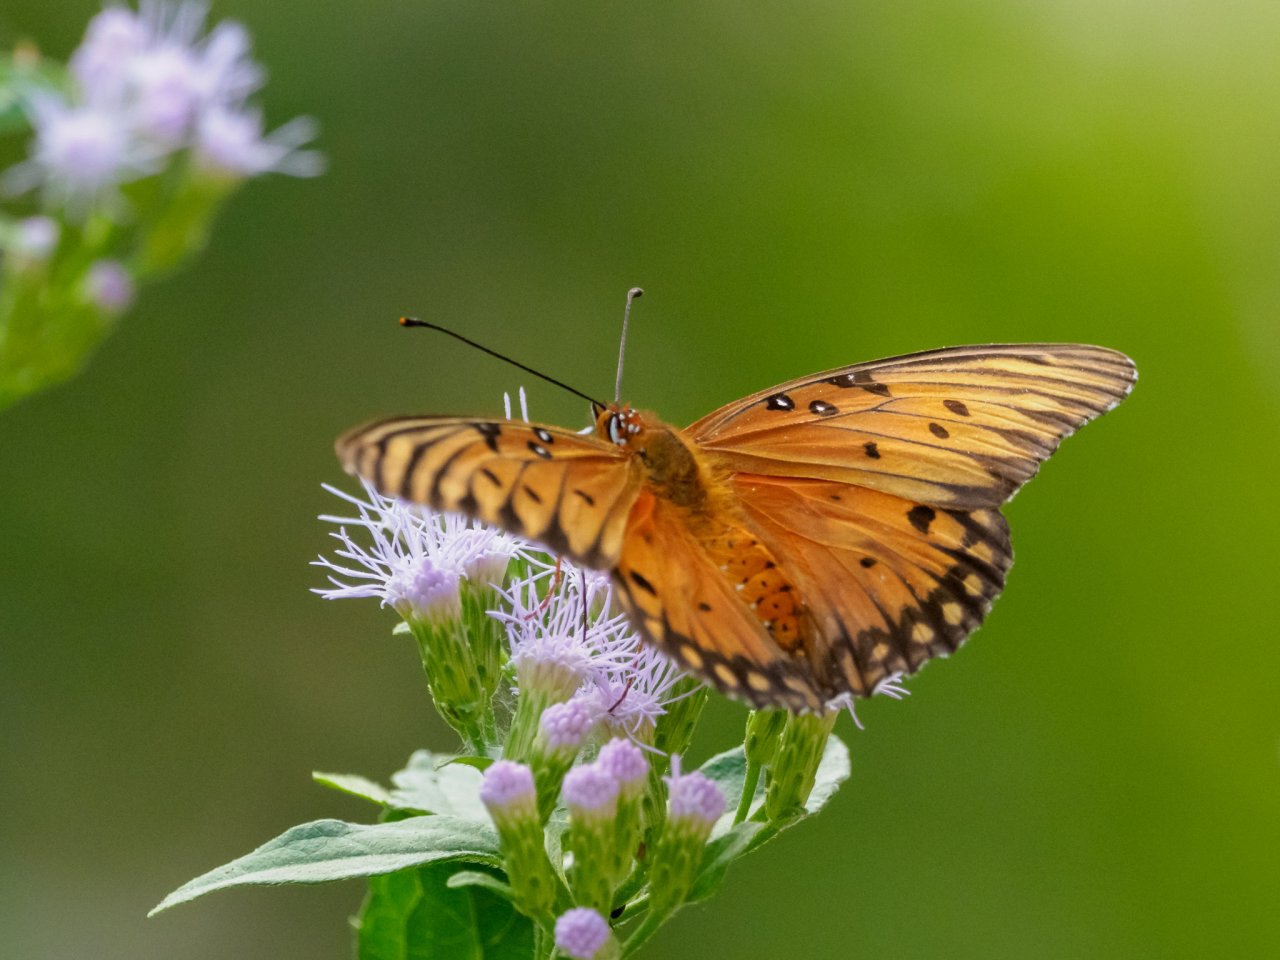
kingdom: Animalia
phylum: Arthropoda
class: Insecta
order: Lepidoptera
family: Nymphalidae
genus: Dione
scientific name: Dione vanillae
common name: Gulf Fritillary
